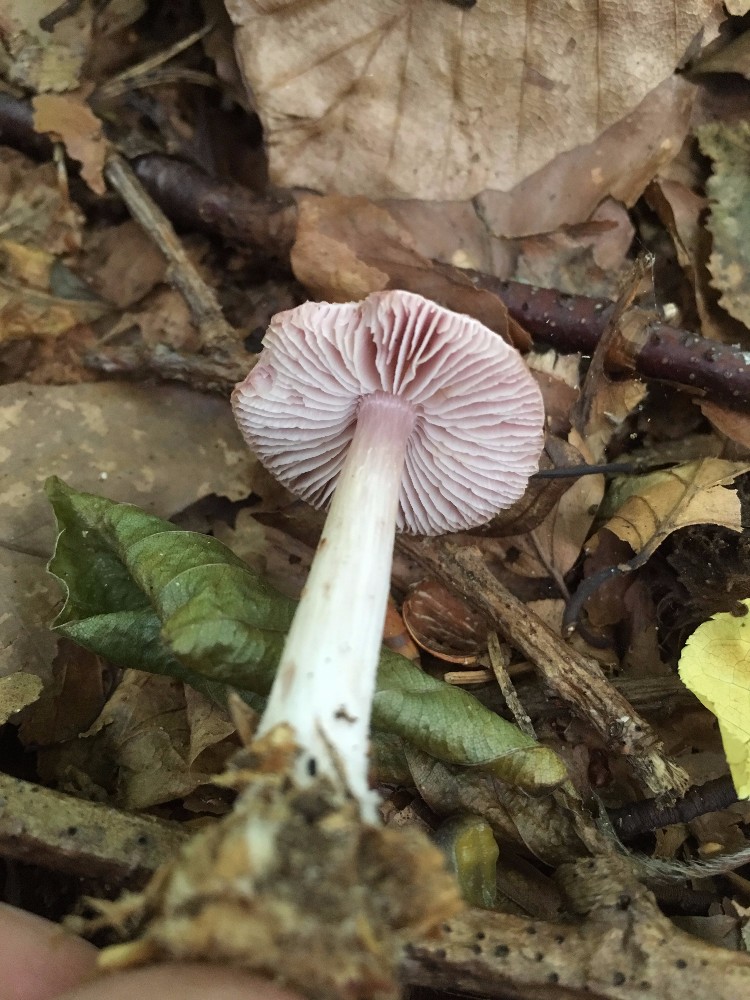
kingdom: Fungi
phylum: Basidiomycota
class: Agaricomycetes
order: Agaricales
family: Mycenaceae
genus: Mycena
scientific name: Mycena rosea
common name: rosa huesvamp
